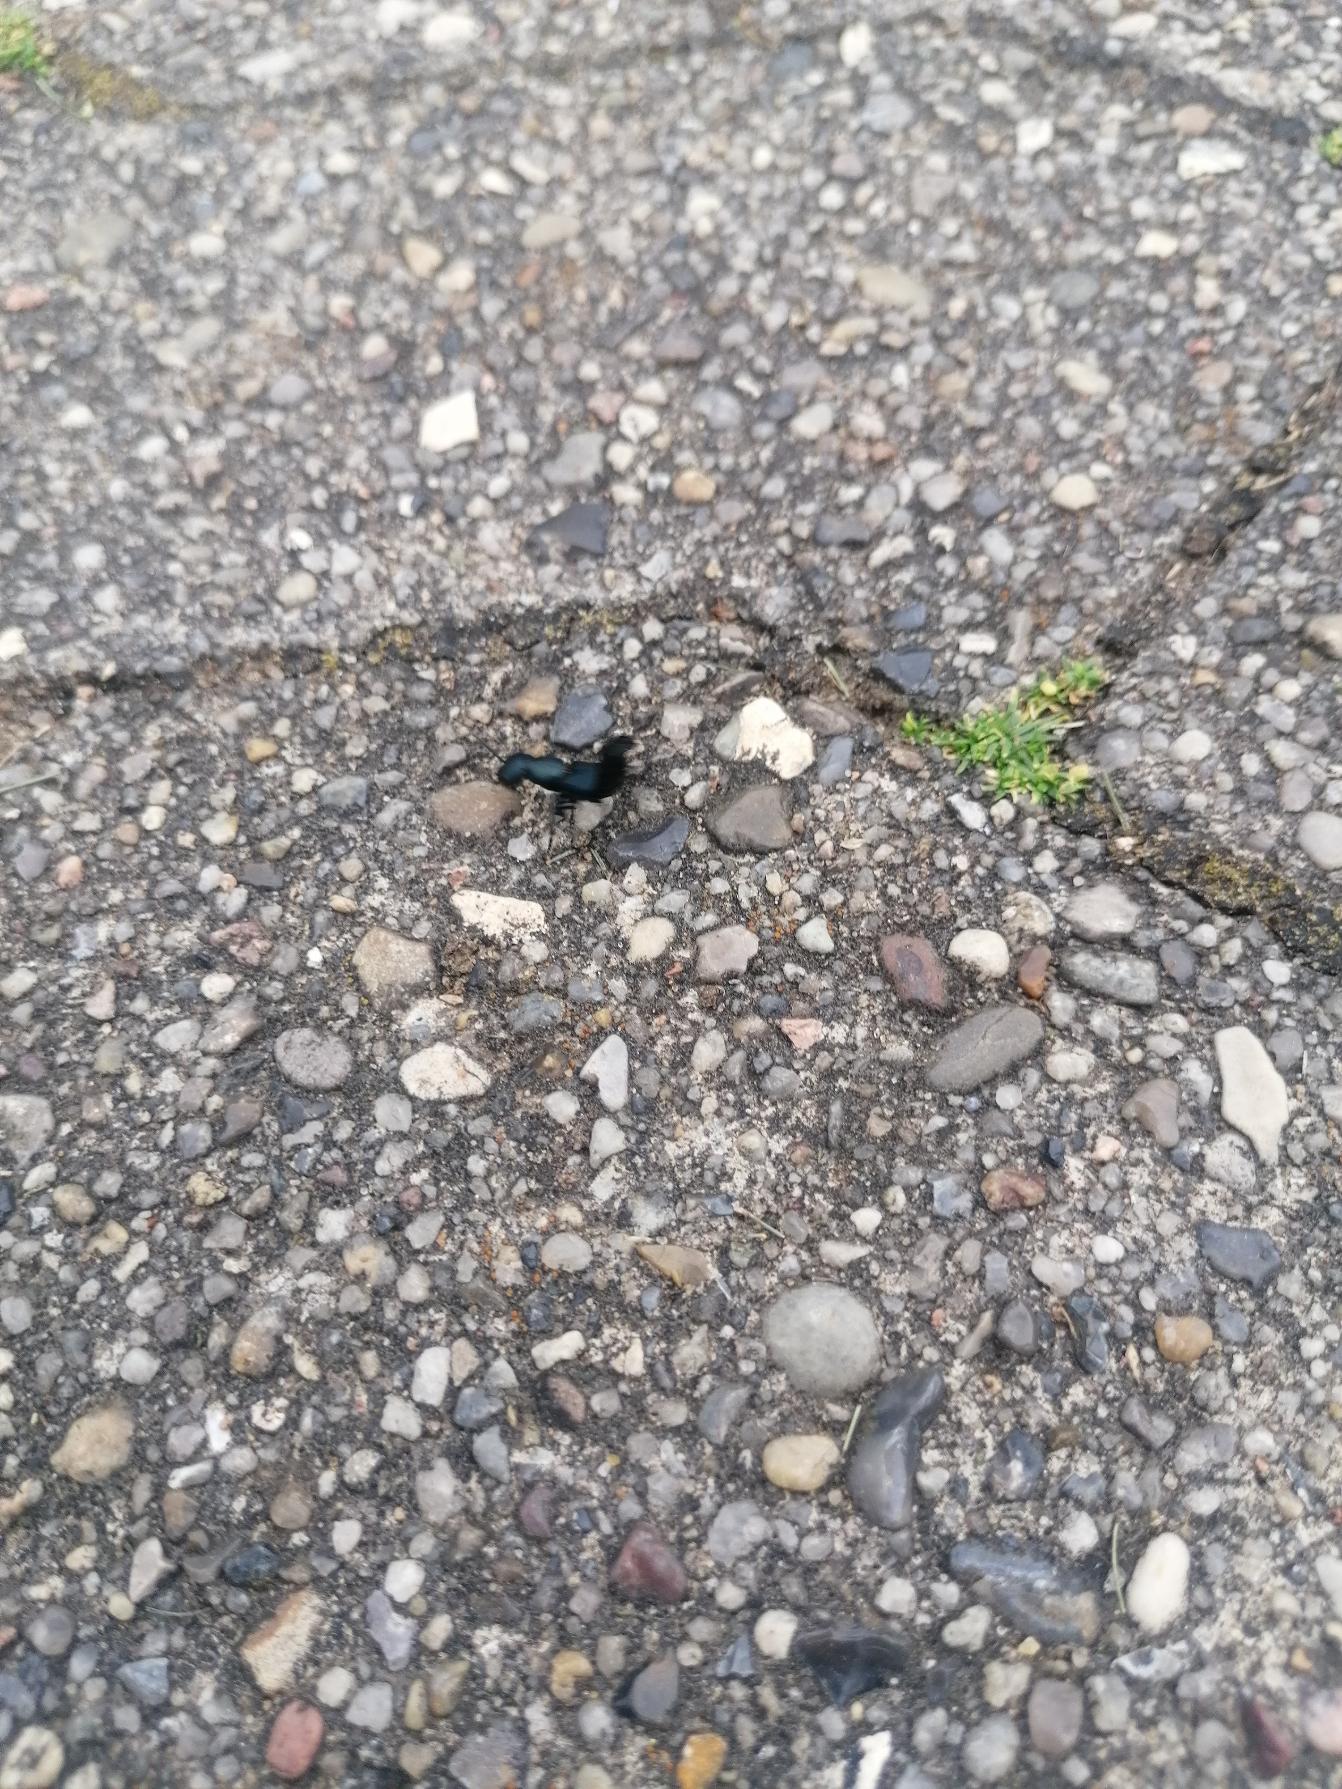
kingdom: Animalia
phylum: Arthropoda
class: Insecta
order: Coleoptera
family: Staphylinidae
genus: Ocypus
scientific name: Ocypus ophthalmicus
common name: Blå kæmperovbille
